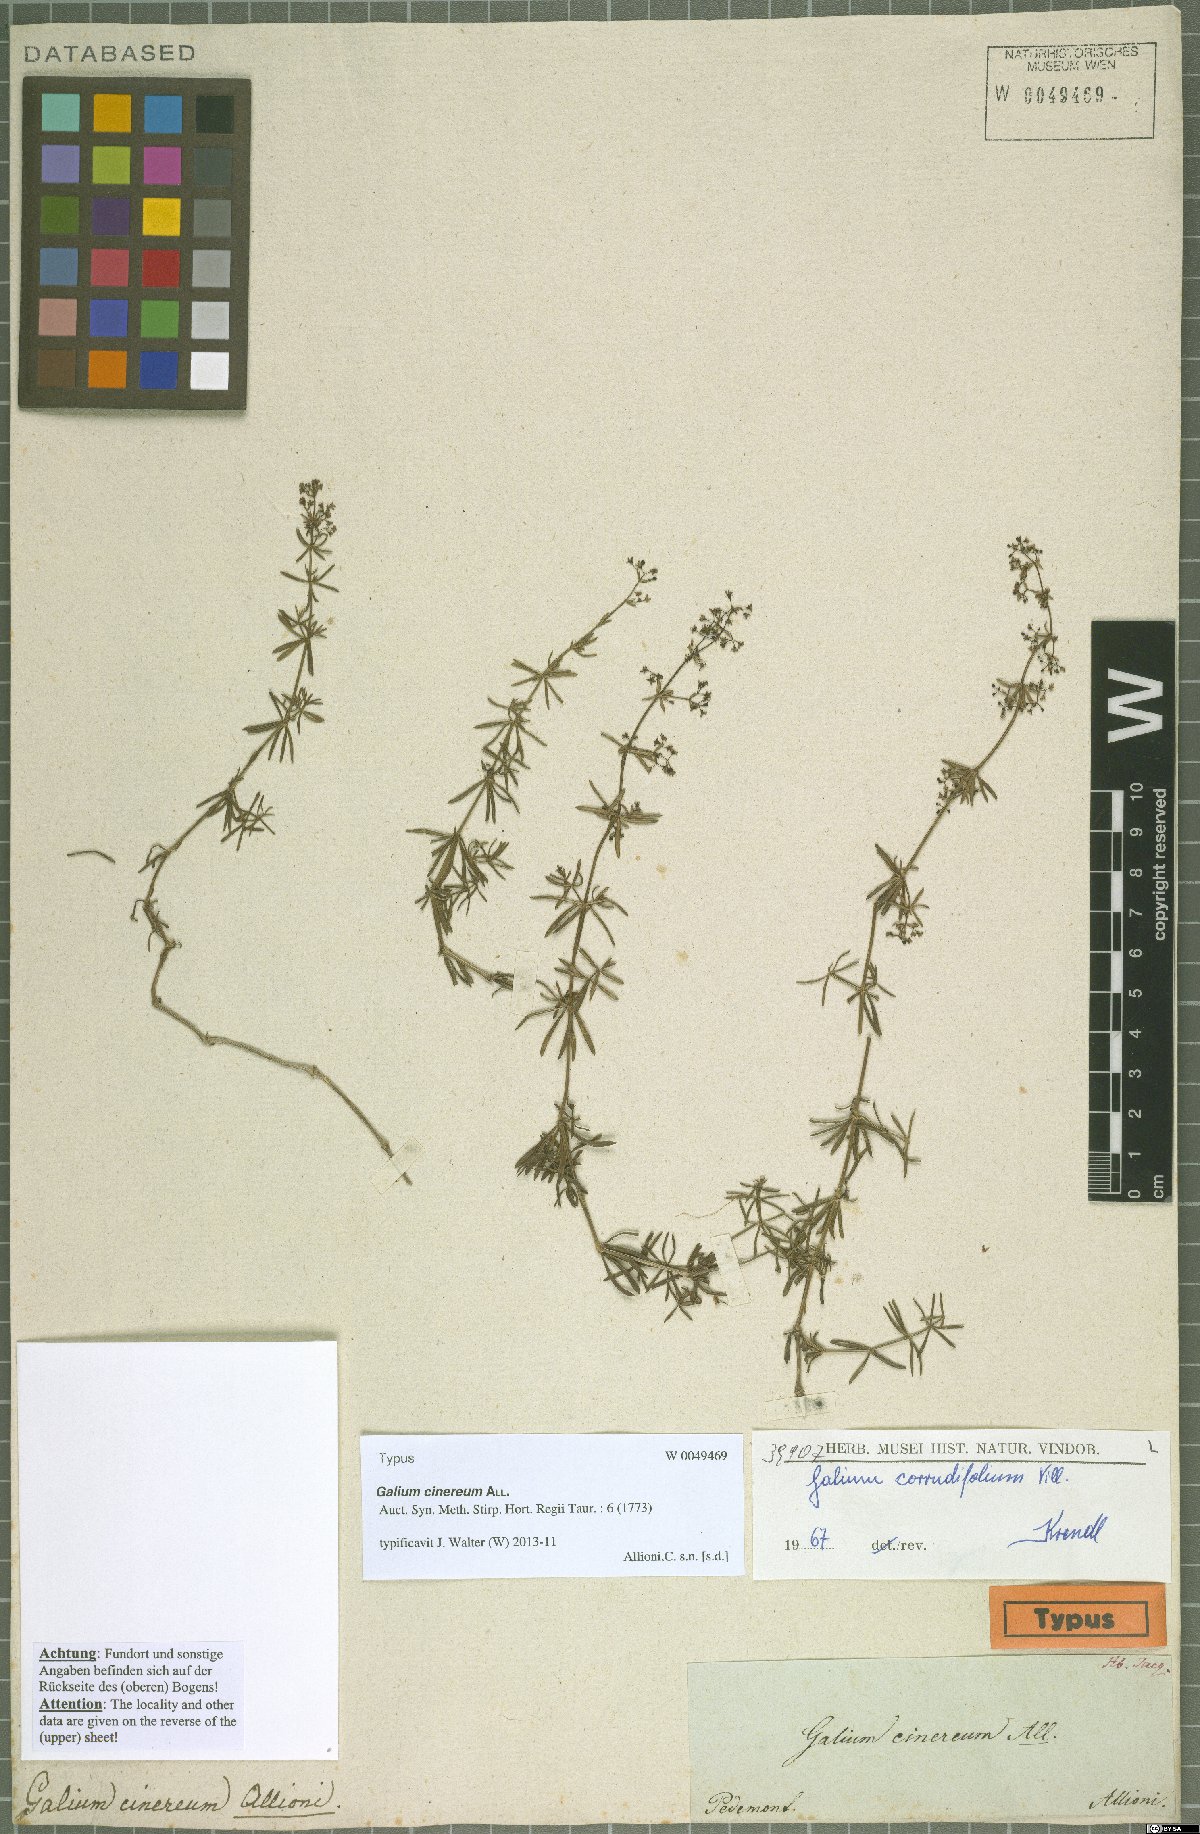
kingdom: Plantae
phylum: Tracheophyta
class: Magnoliopsida
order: Gentianales
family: Rubiaceae
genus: Galium
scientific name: Galium cinereum
